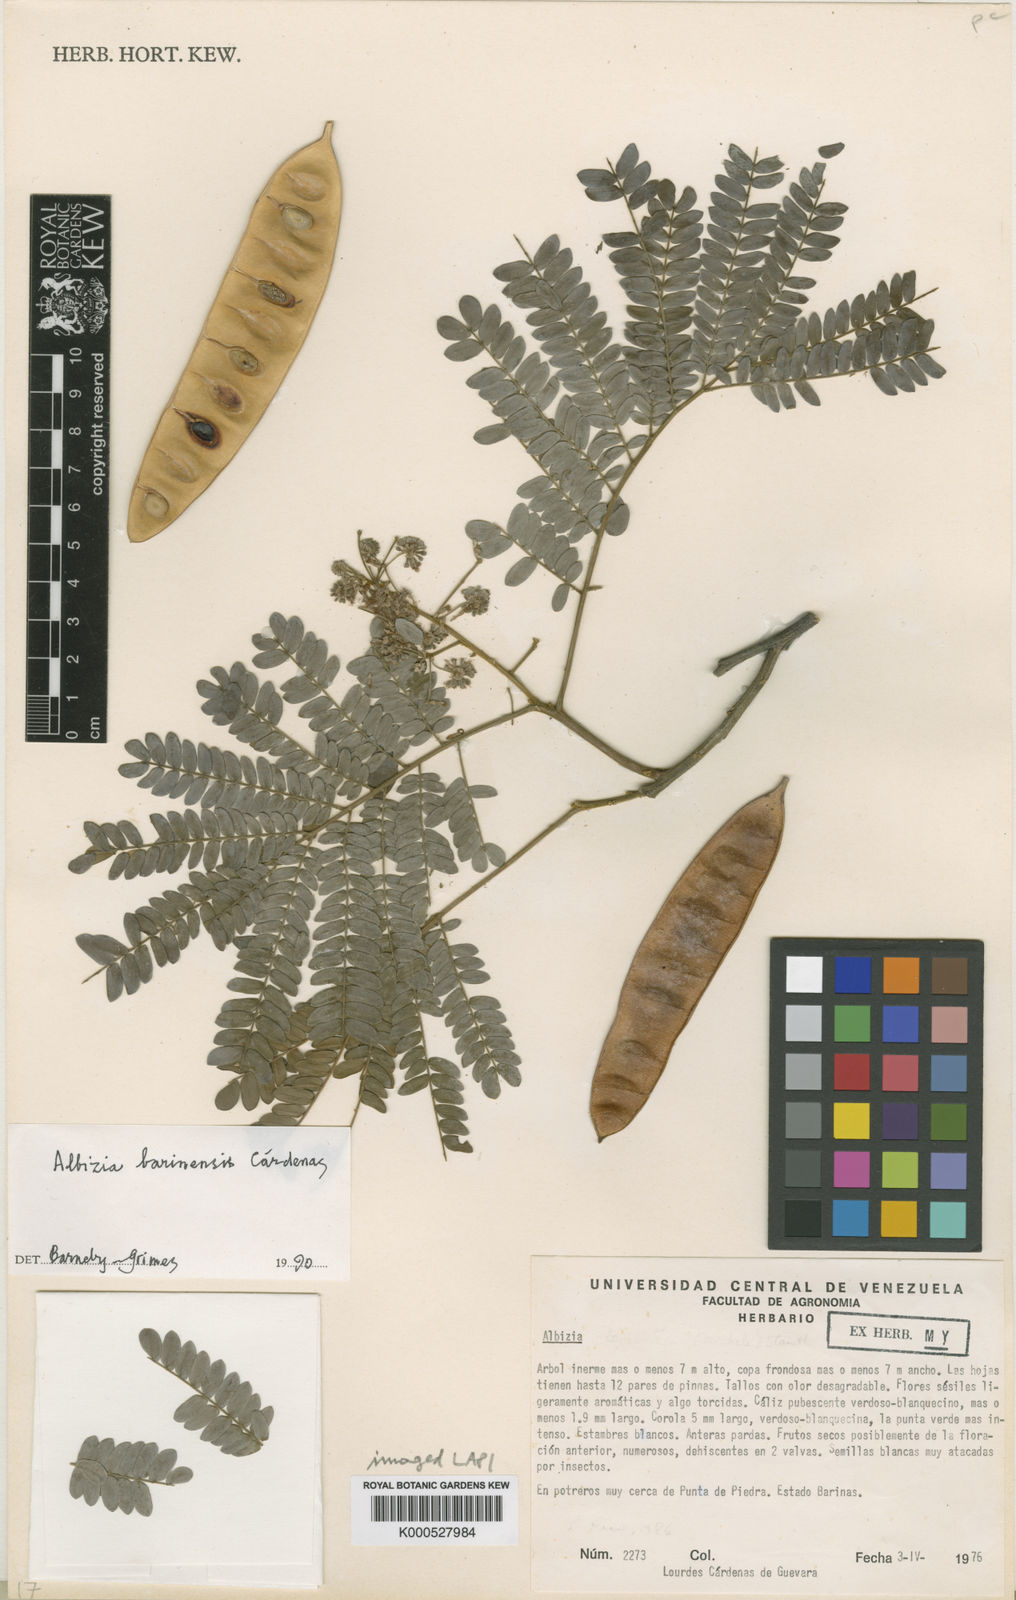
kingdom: Plantae
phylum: Tracheophyta
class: Magnoliopsida
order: Fabales
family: Fabaceae
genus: Albizia
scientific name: Albizia
